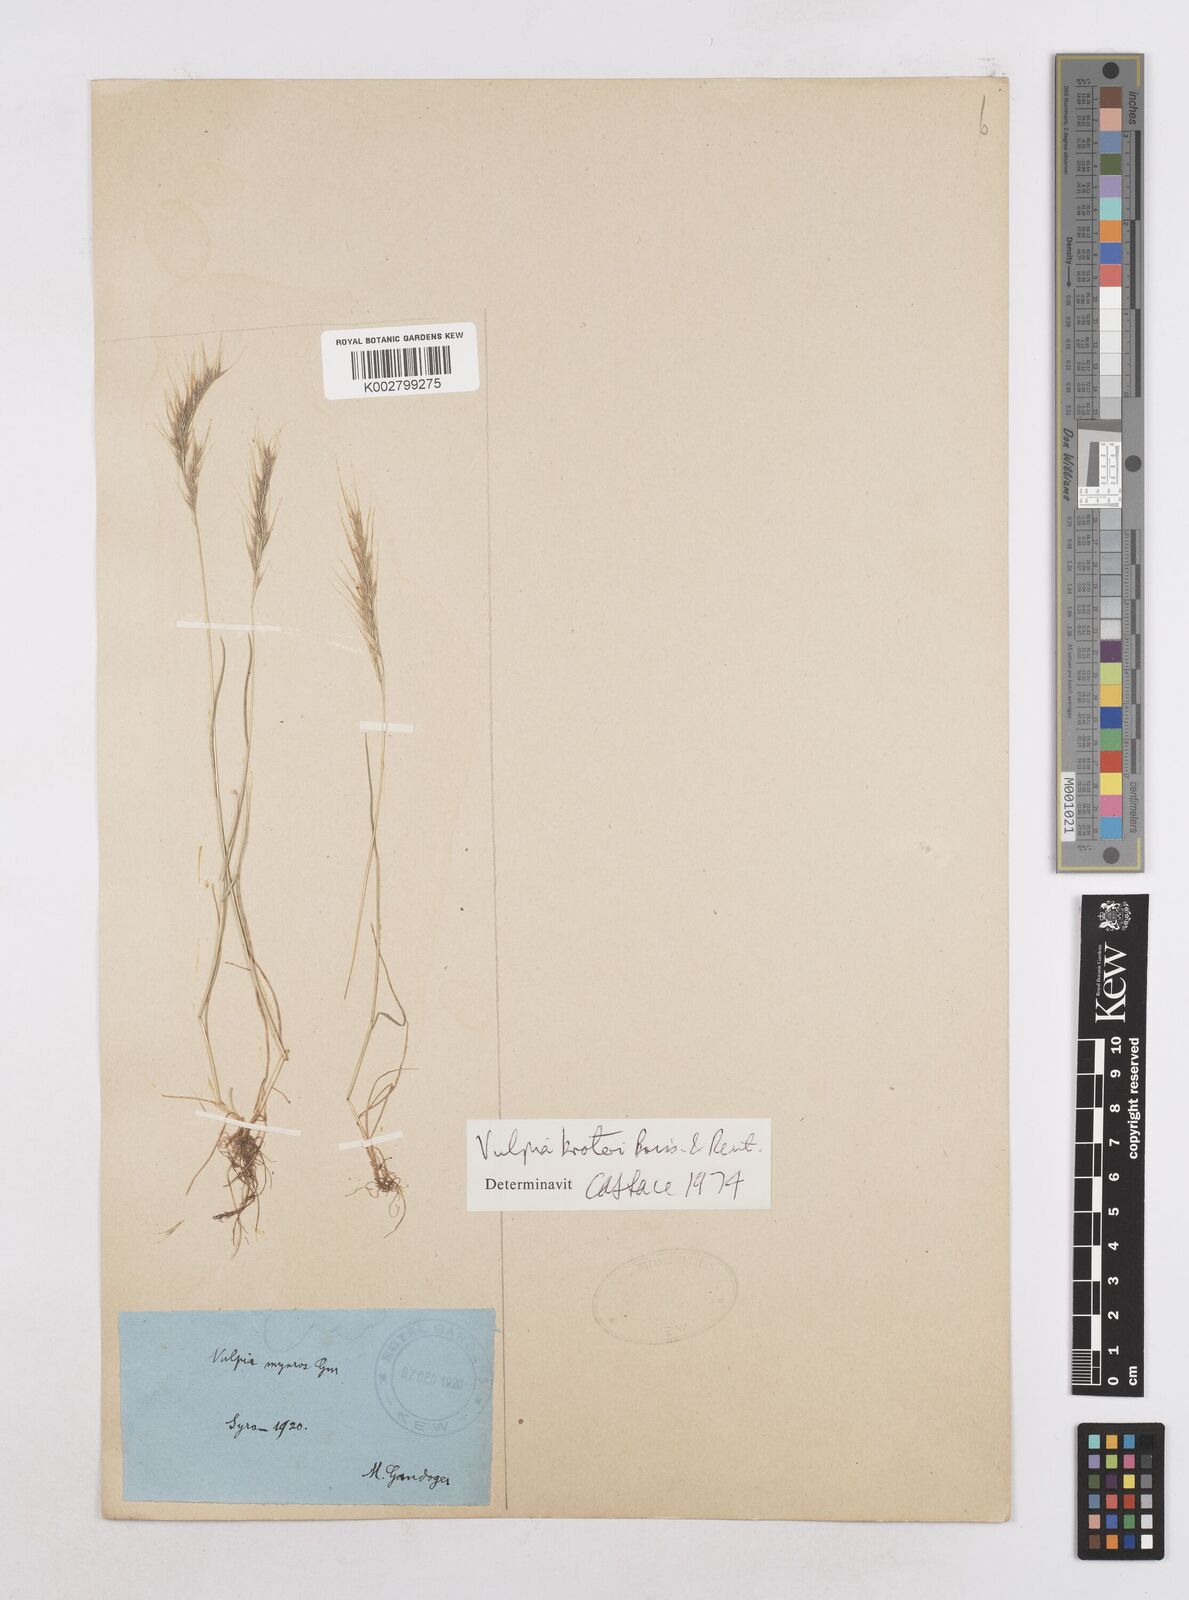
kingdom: Plantae
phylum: Tracheophyta
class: Liliopsida
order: Poales
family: Poaceae
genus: Festuca
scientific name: Festuca muralis
